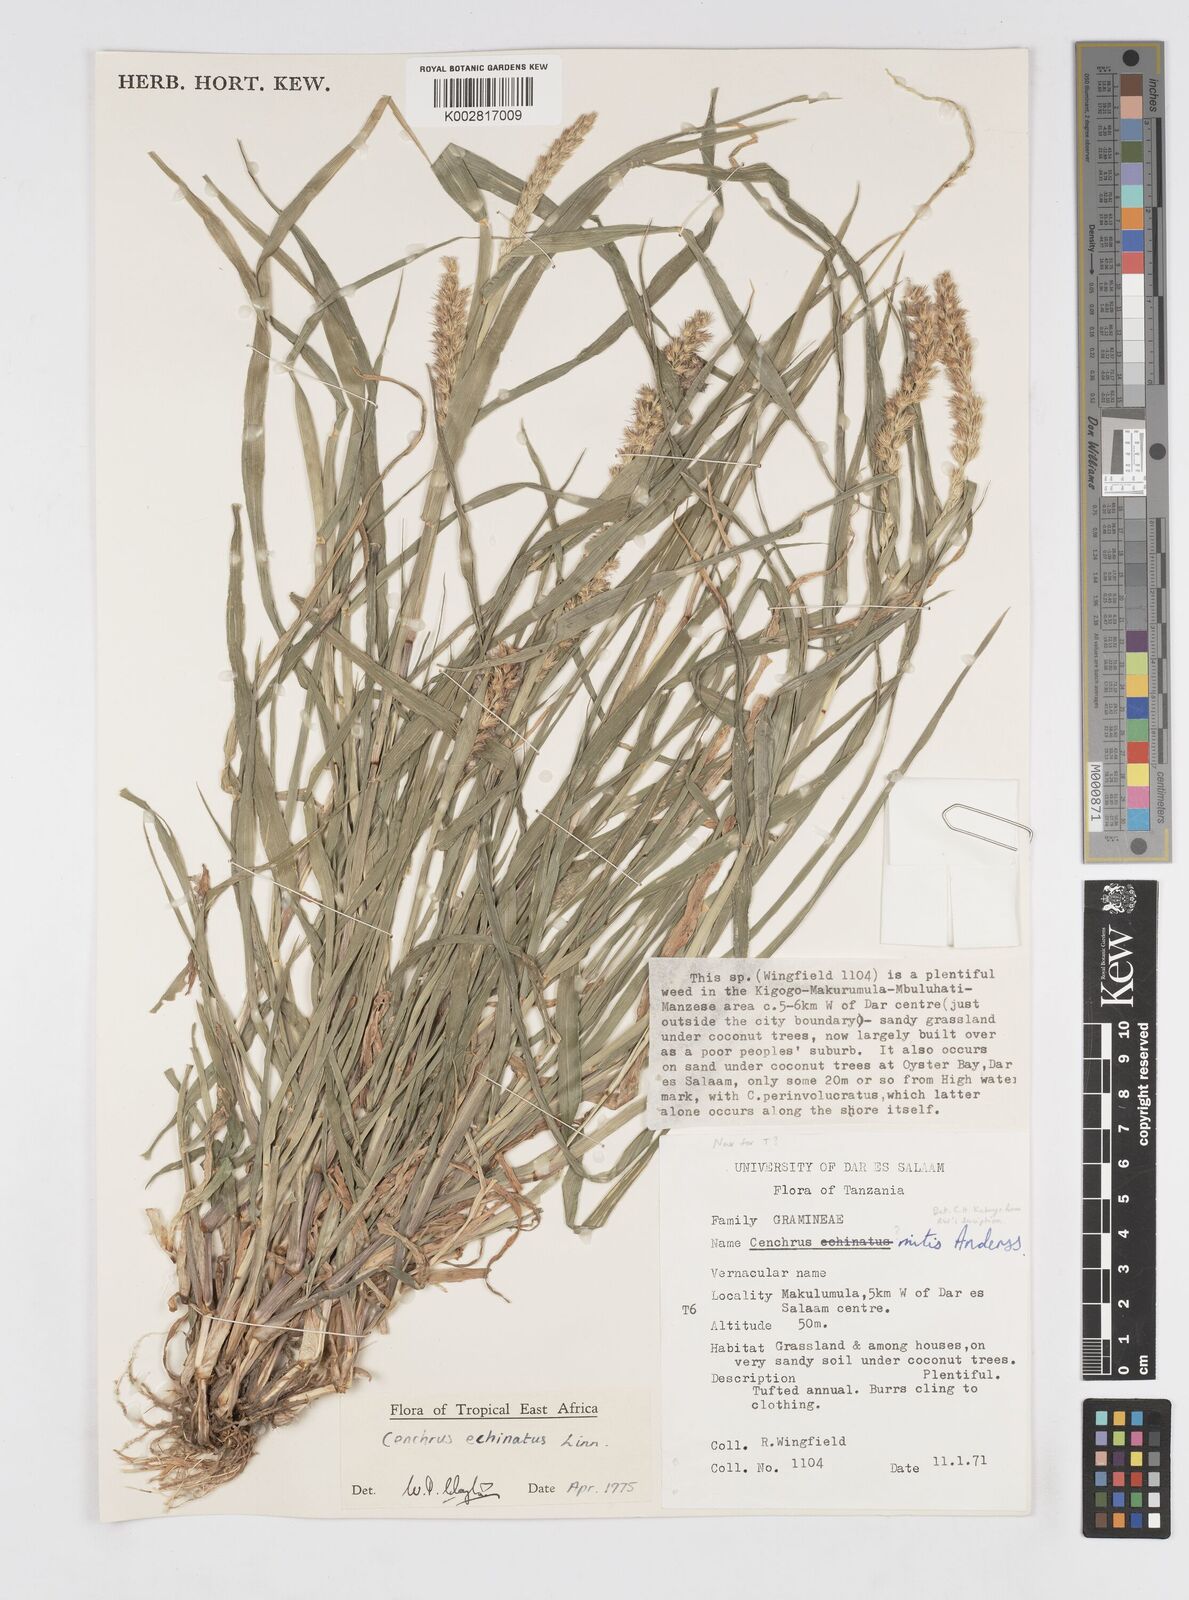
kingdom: Plantae
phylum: Tracheophyta
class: Liliopsida
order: Poales
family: Poaceae
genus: Cenchrus
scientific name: Cenchrus echinatus
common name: Southern sandbur
